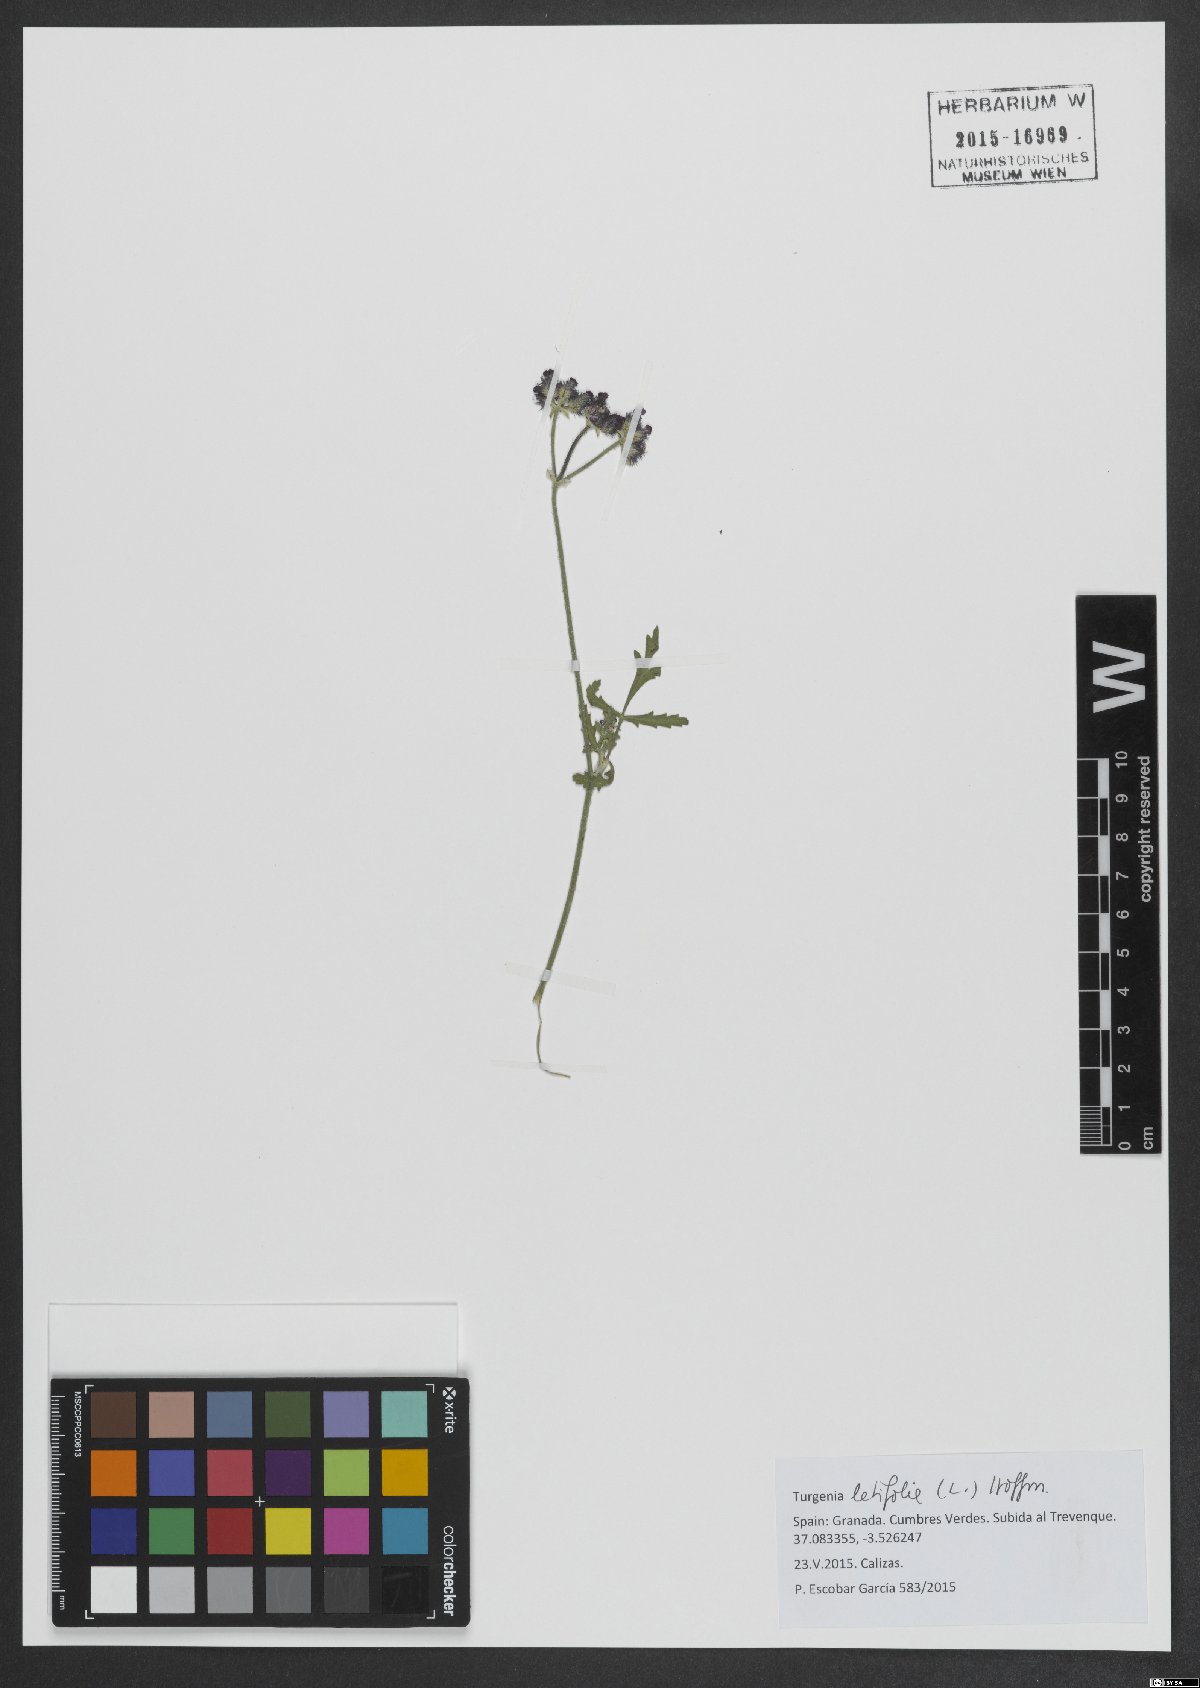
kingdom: Plantae
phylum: Tracheophyta
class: Magnoliopsida
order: Apiales
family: Apiaceae
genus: Turgenia
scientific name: Turgenia latifolia
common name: Greater bur-parsley
